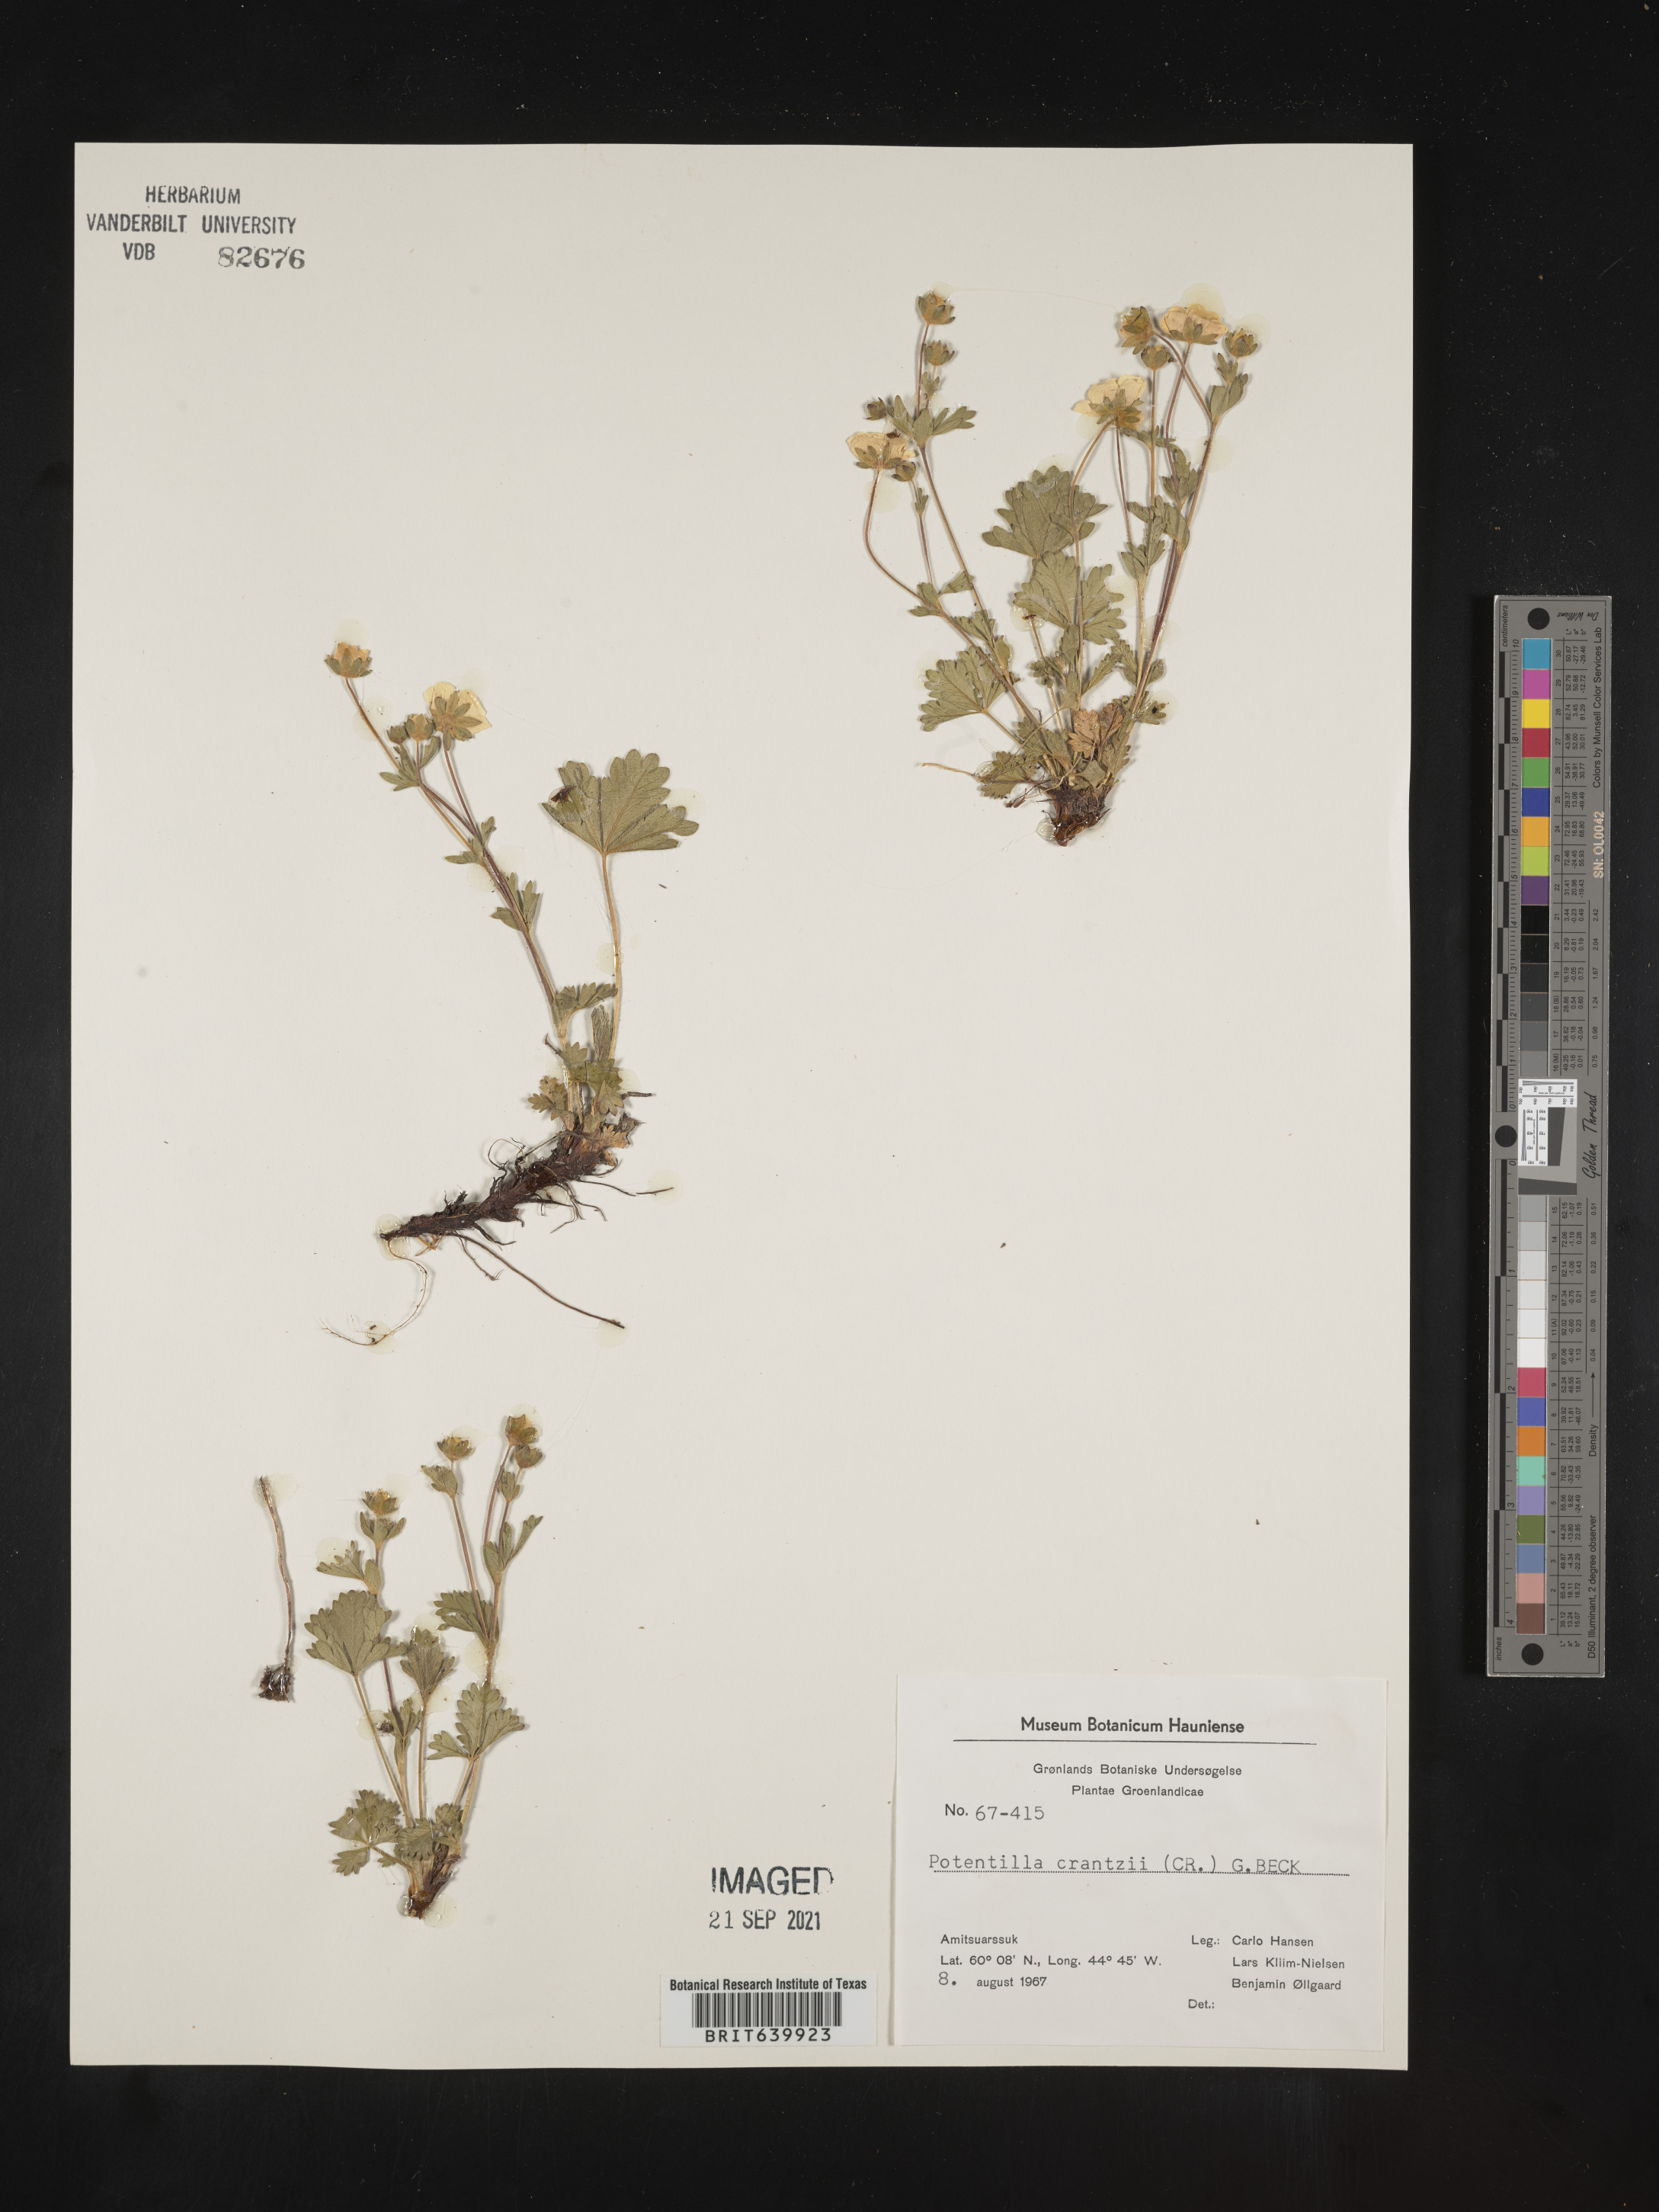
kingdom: Plantae
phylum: Tracheophyta
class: Magnoliopsida
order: Rosales
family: Rosaceae
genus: Potentilla
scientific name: Potentilla
